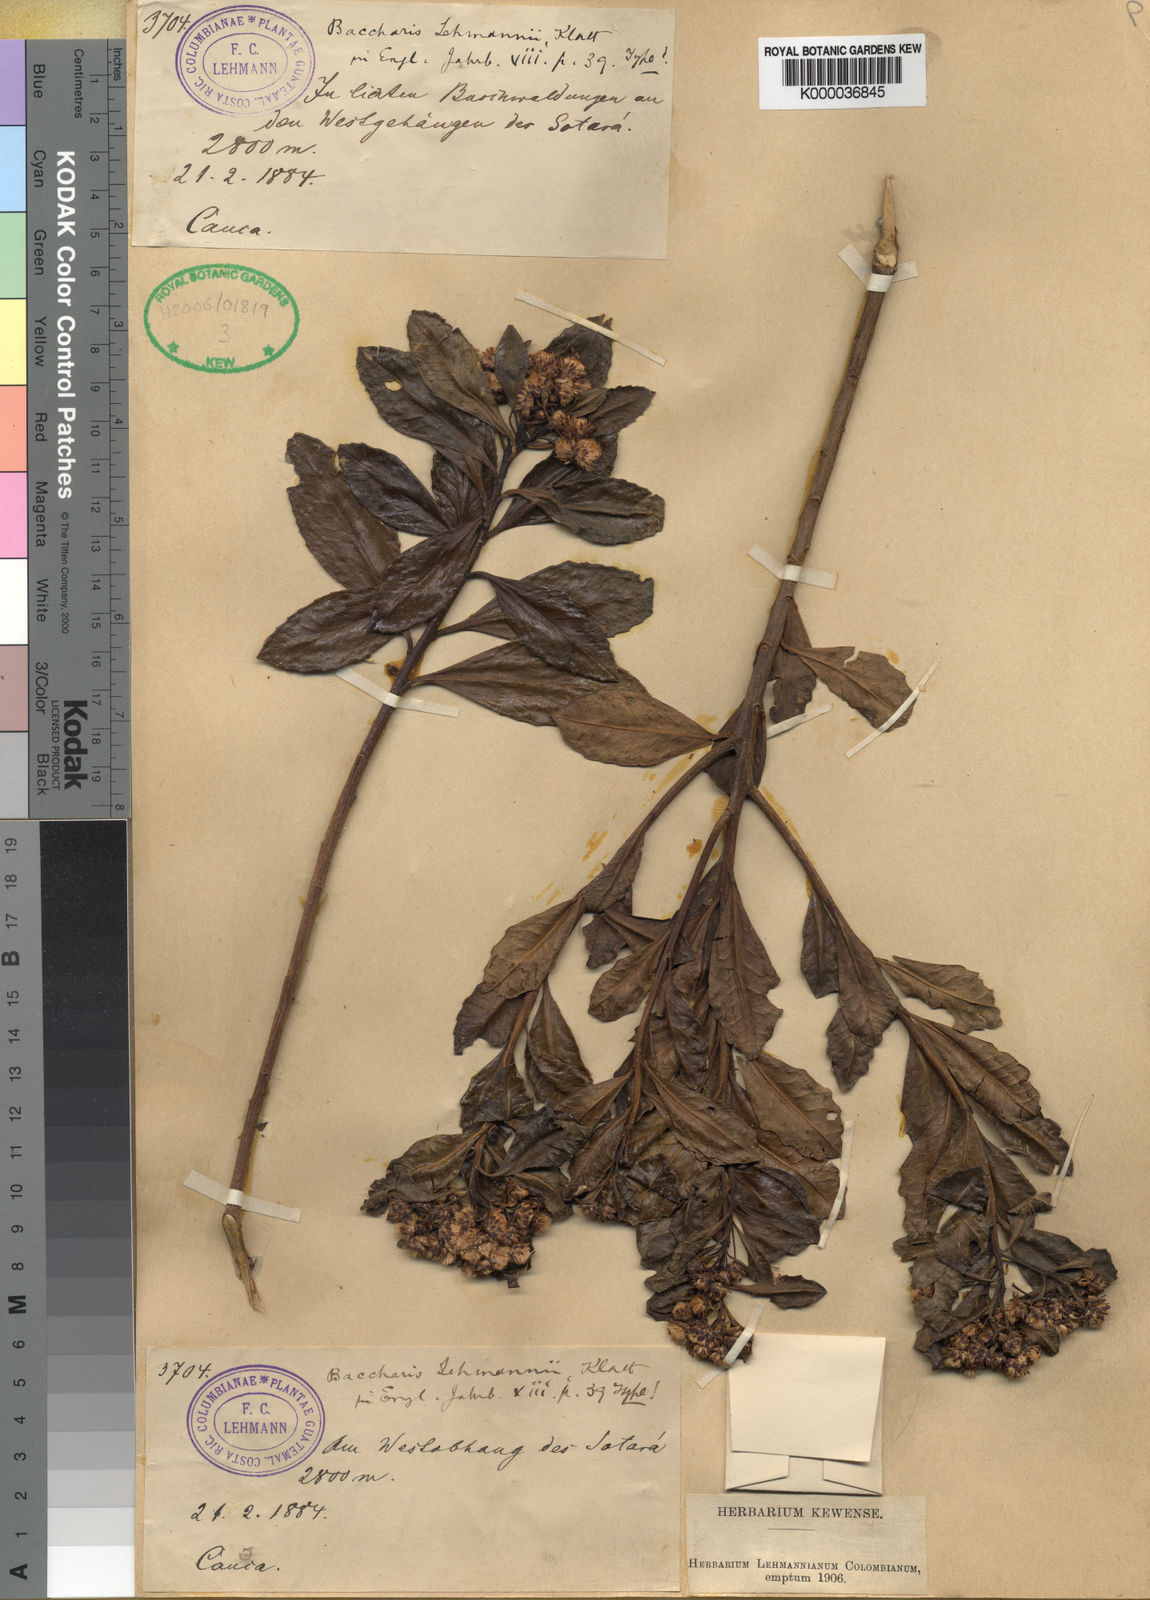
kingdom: Plantae
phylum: Tracheophyta
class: Magnoliopsida
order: Asterales
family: Asteraceae
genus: Baccharis
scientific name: Baccharis lehmannii
